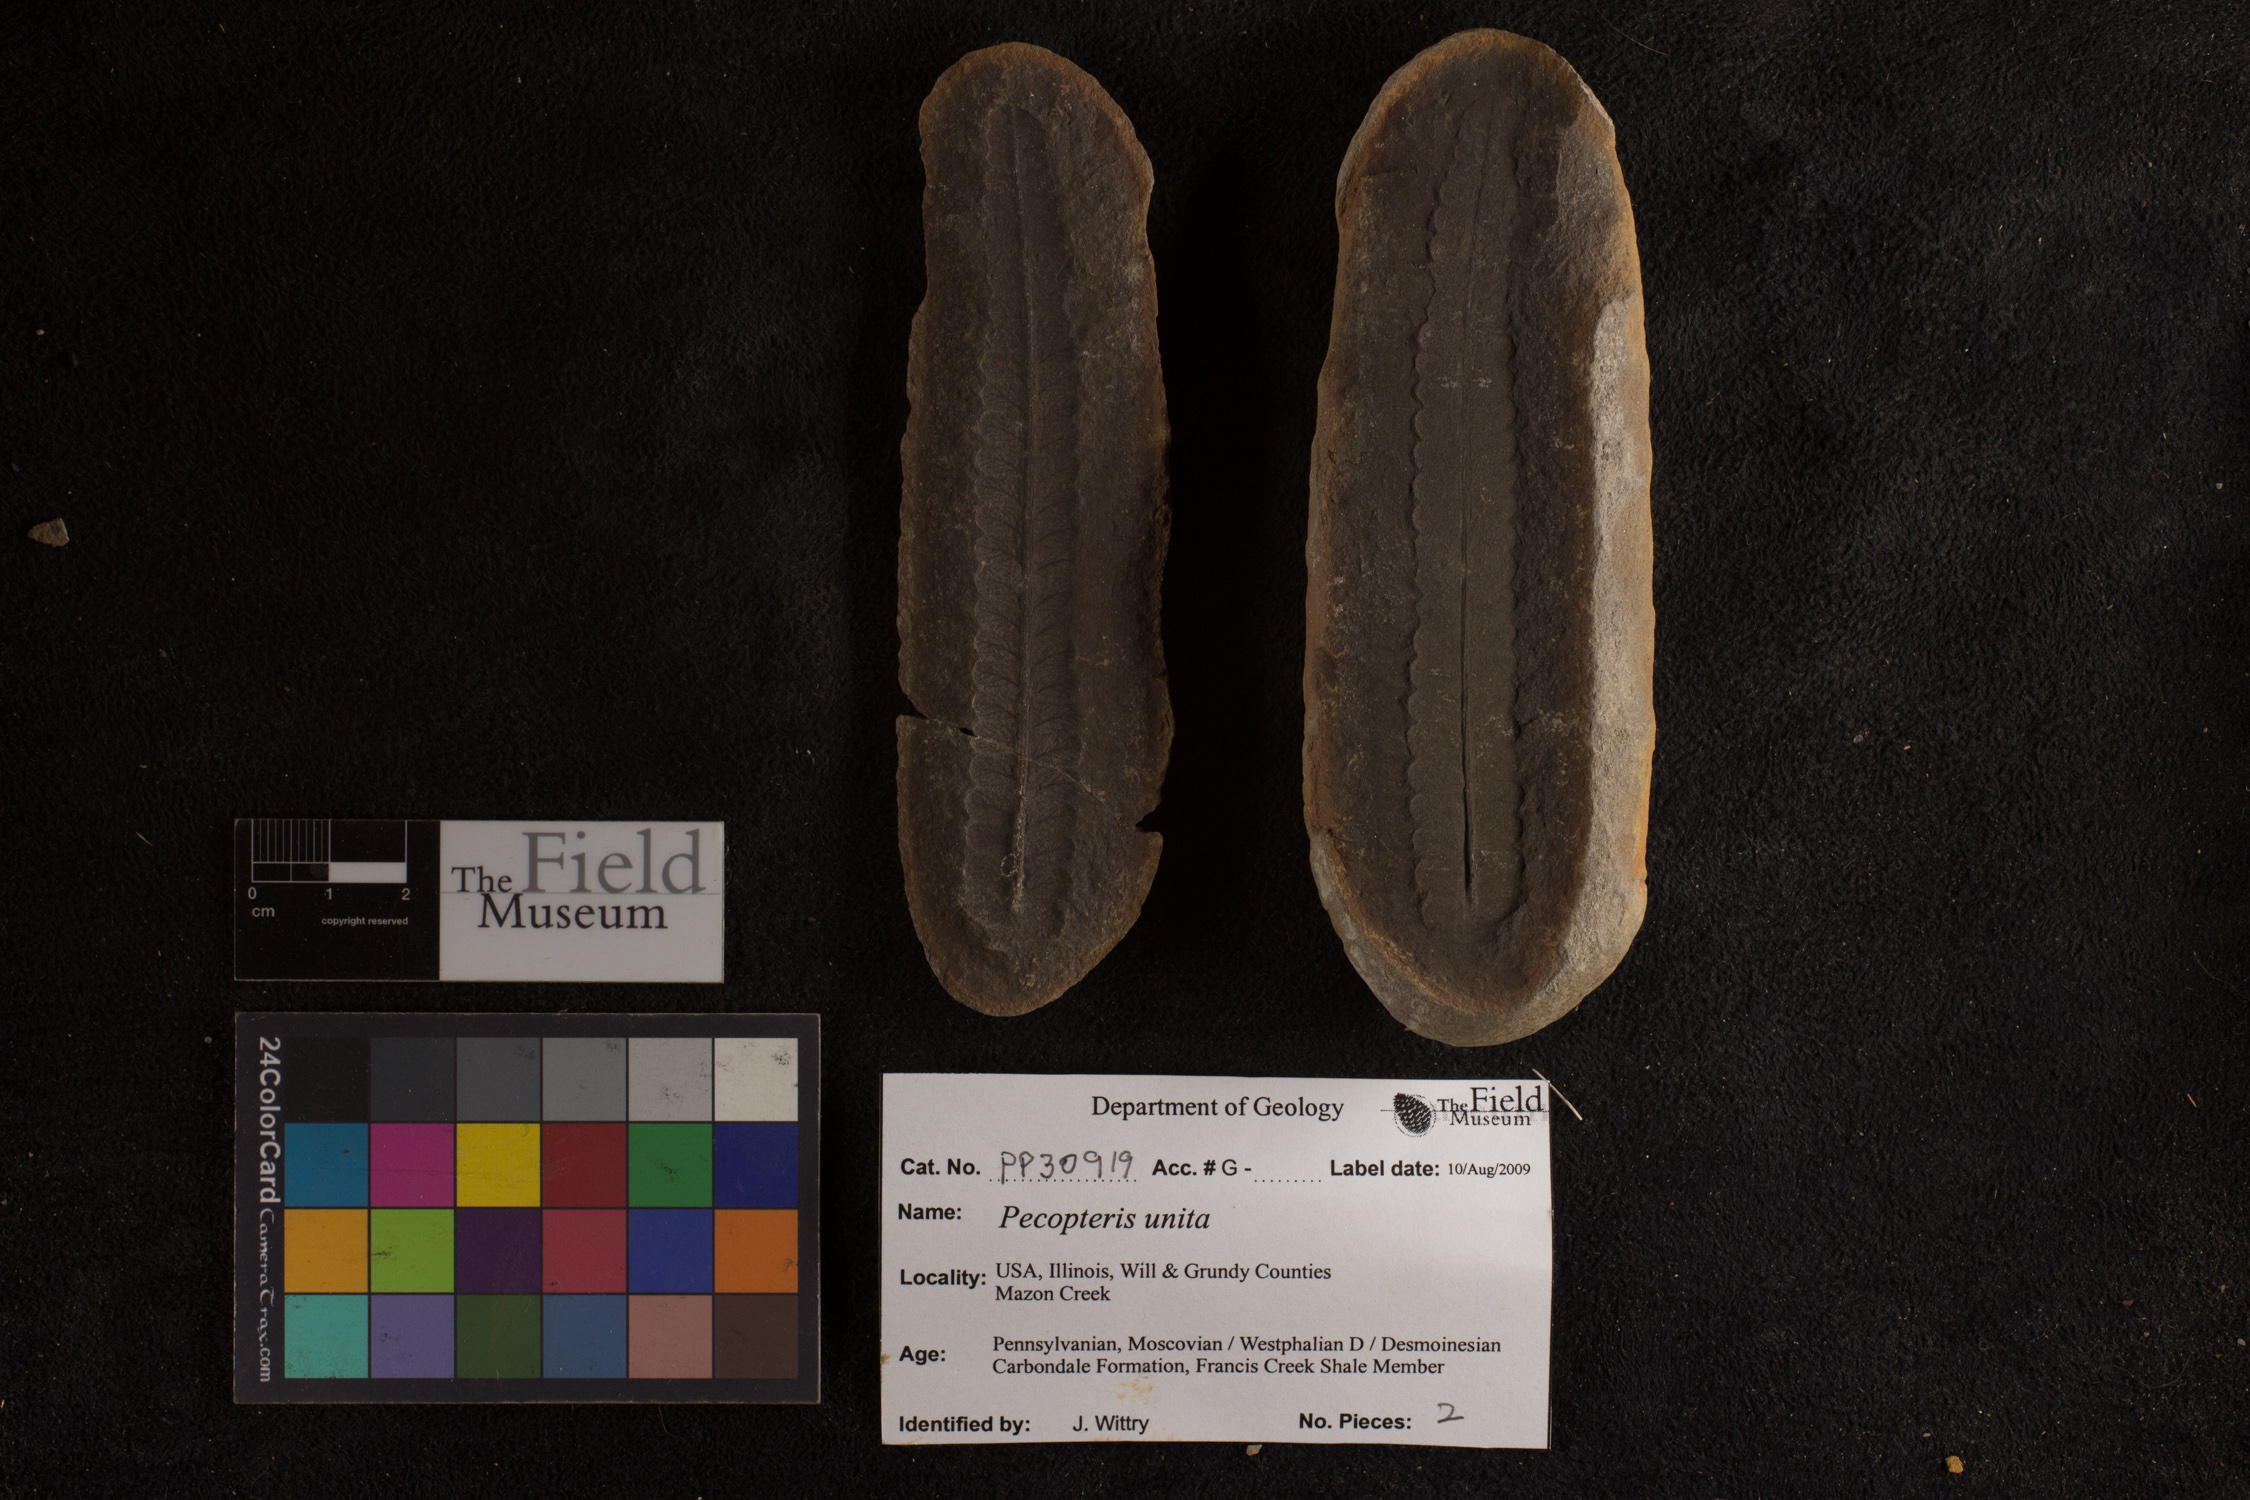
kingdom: Plantae
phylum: Tracheophyta
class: Polypodiopsida
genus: Diplazites
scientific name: Diplazites
